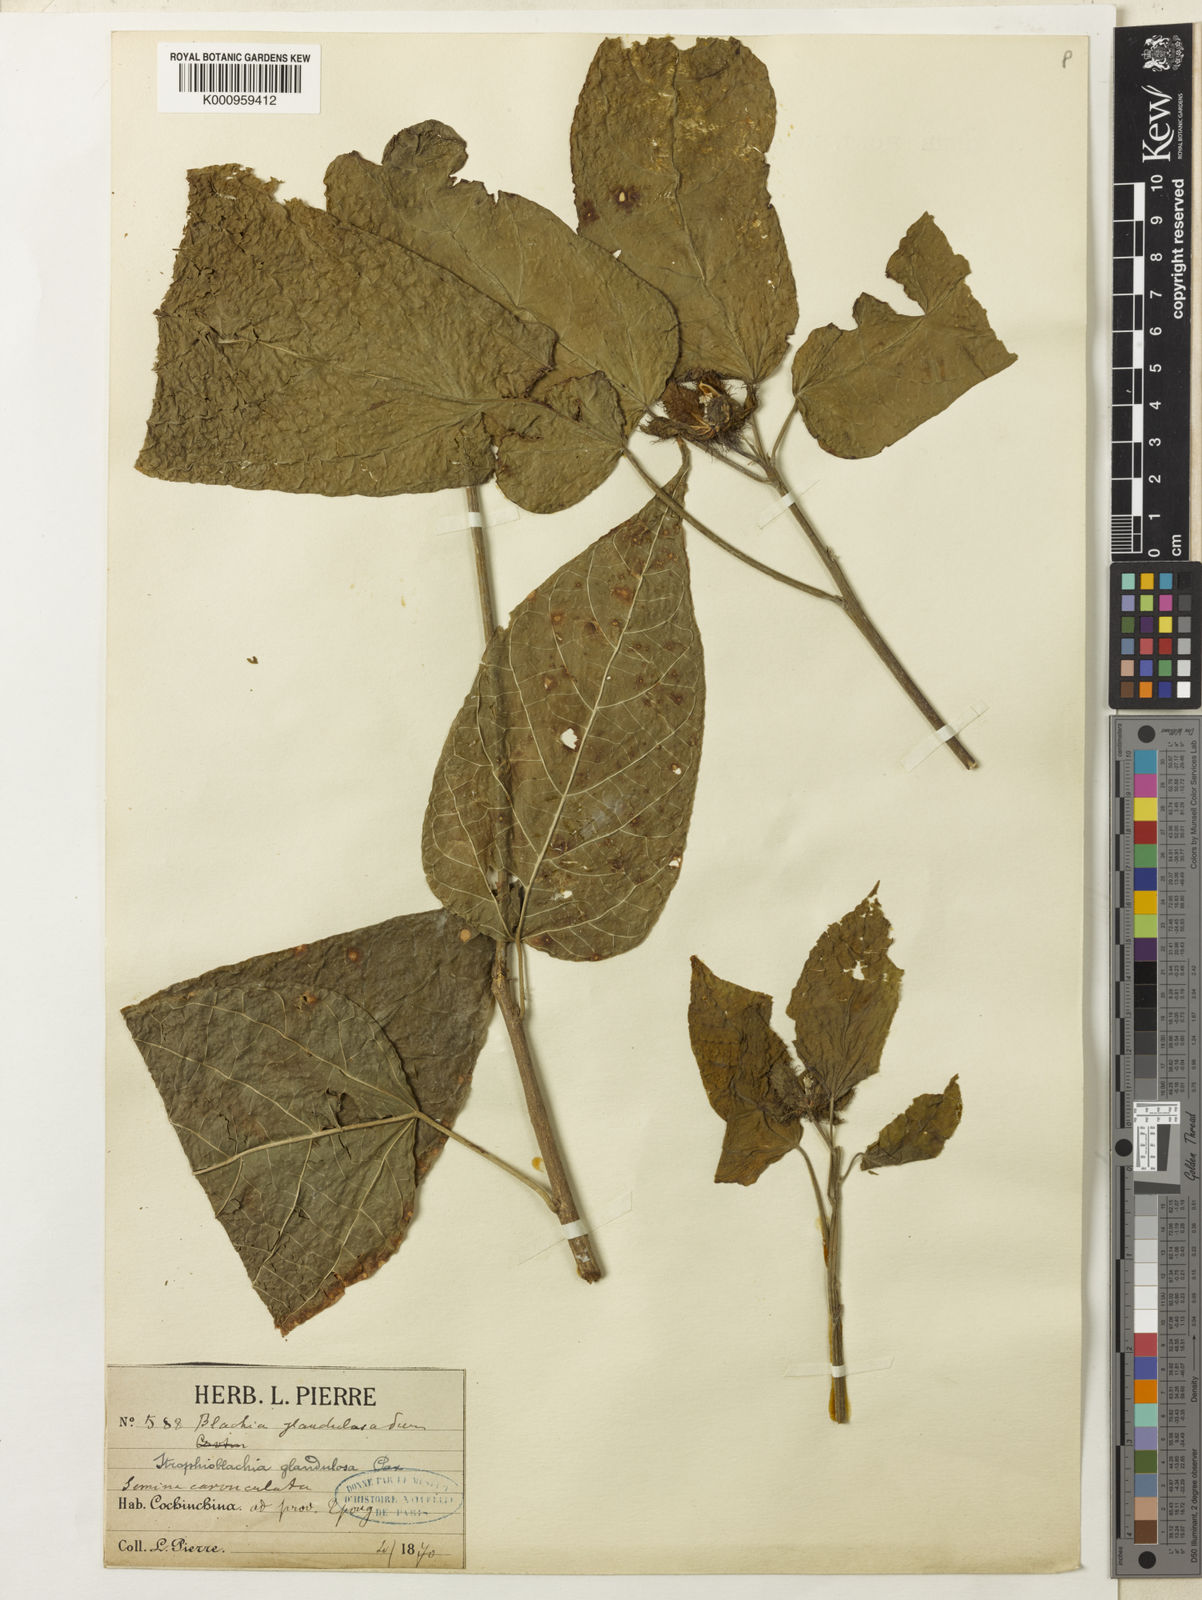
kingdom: Plantae
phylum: Tracheophyta
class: Magnoliopsida
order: Malpighiales
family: Euphorbiaceae
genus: Strophioblachia
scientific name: Strophioblachia fimbricalyx
